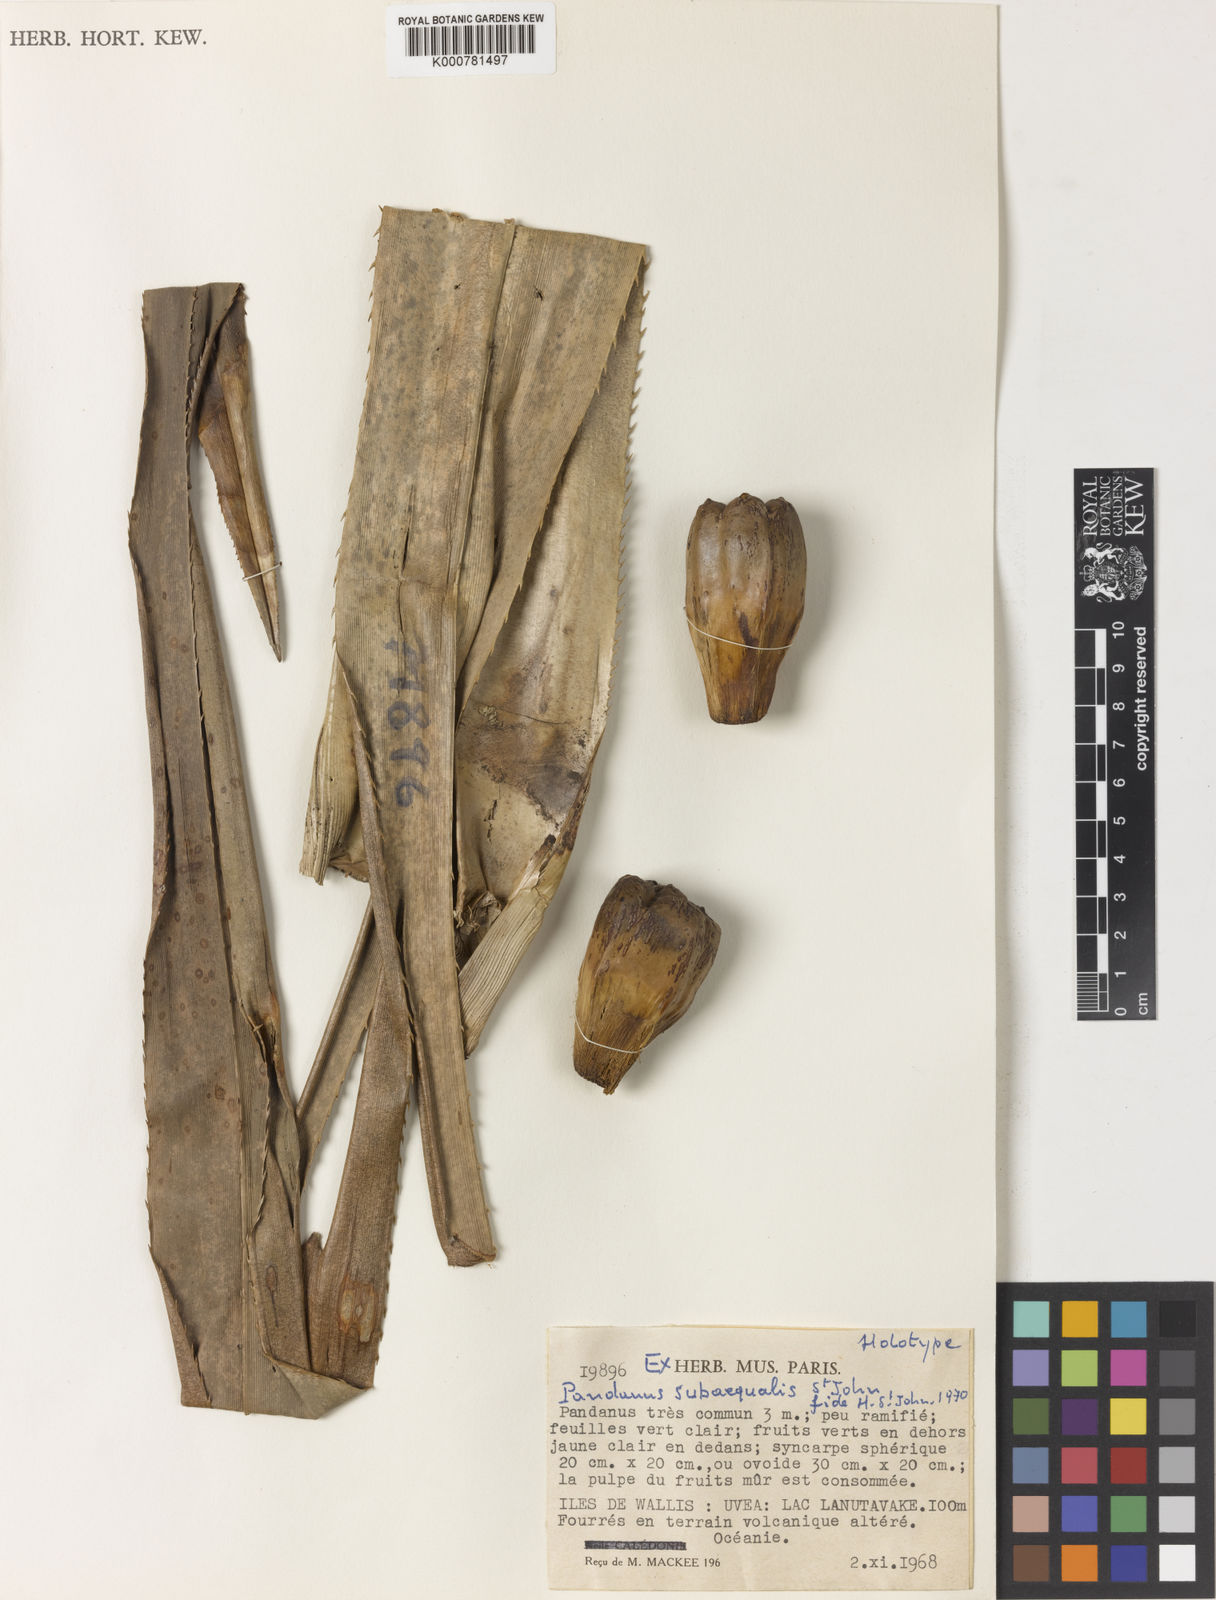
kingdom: Plantae
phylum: Tracheophyta
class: Liliopsida
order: Pandanales
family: Pandanaceae
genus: Pandanus
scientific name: Pandanus tectorius
